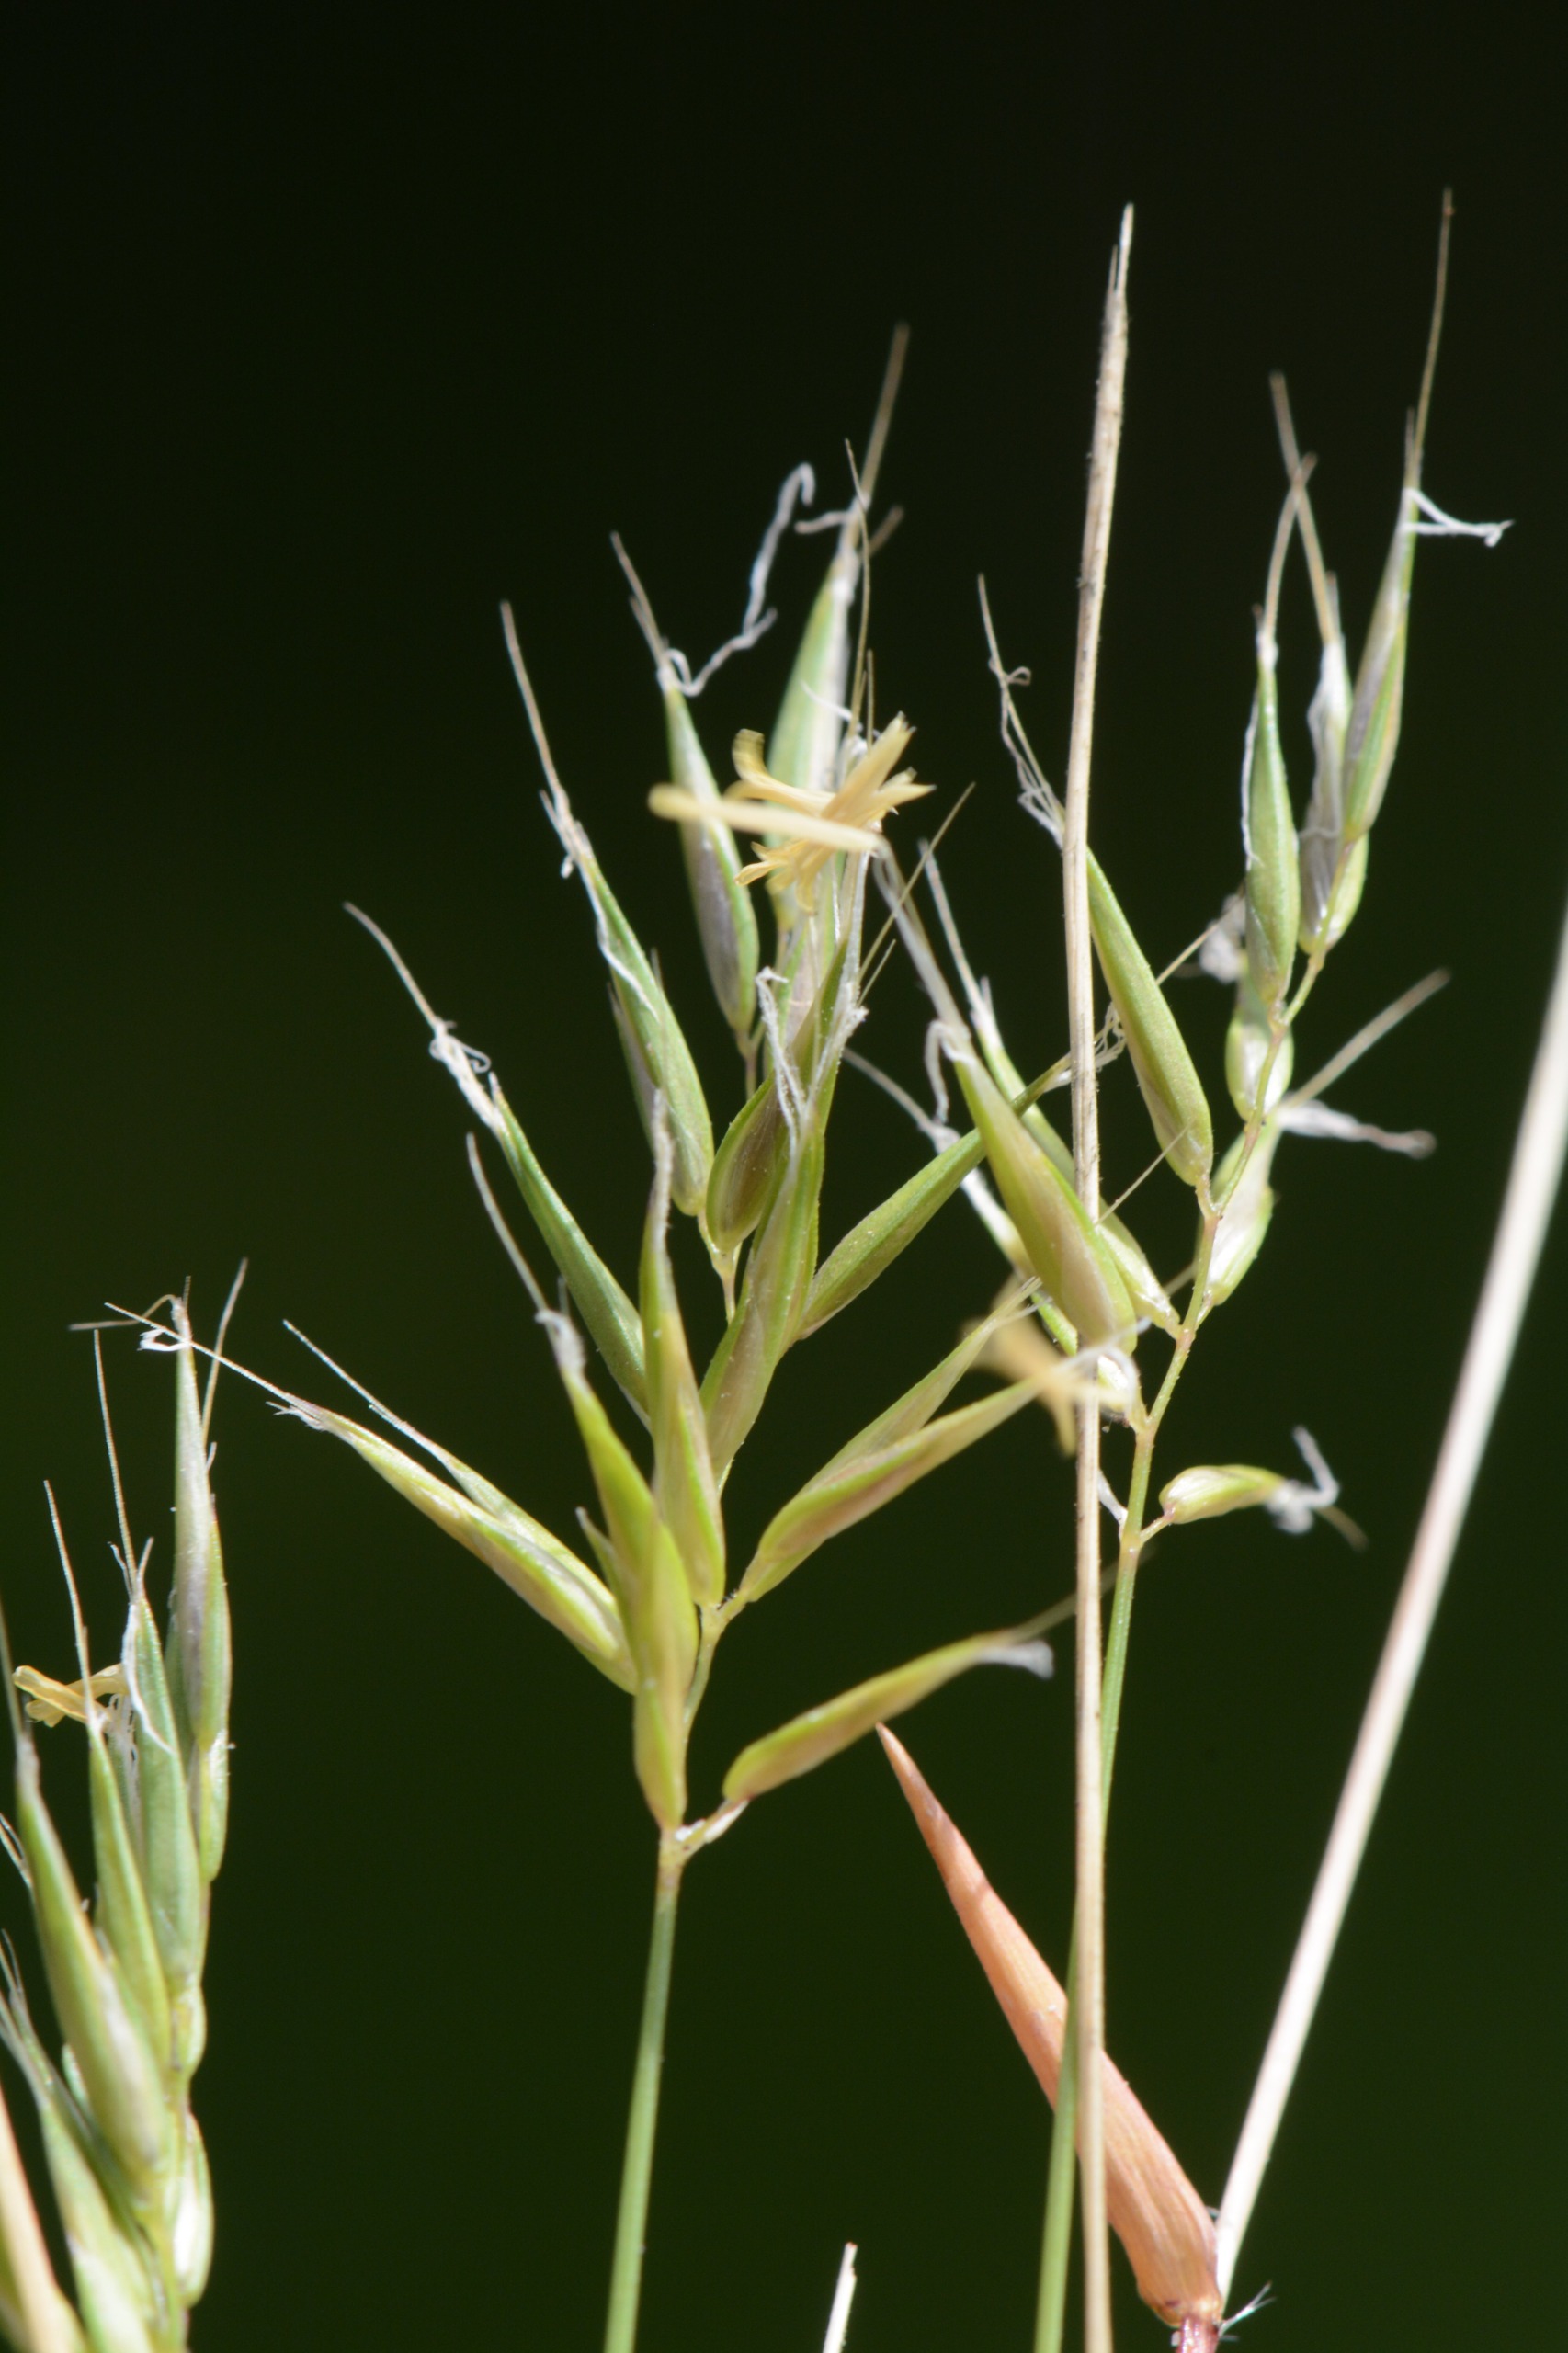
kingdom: Plantae
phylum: Tracheophyta
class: Liliopsida
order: Poales
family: Poaceae
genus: Anthoxanthum
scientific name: Anthoxanthum aristatum
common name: Enårig gulaks
